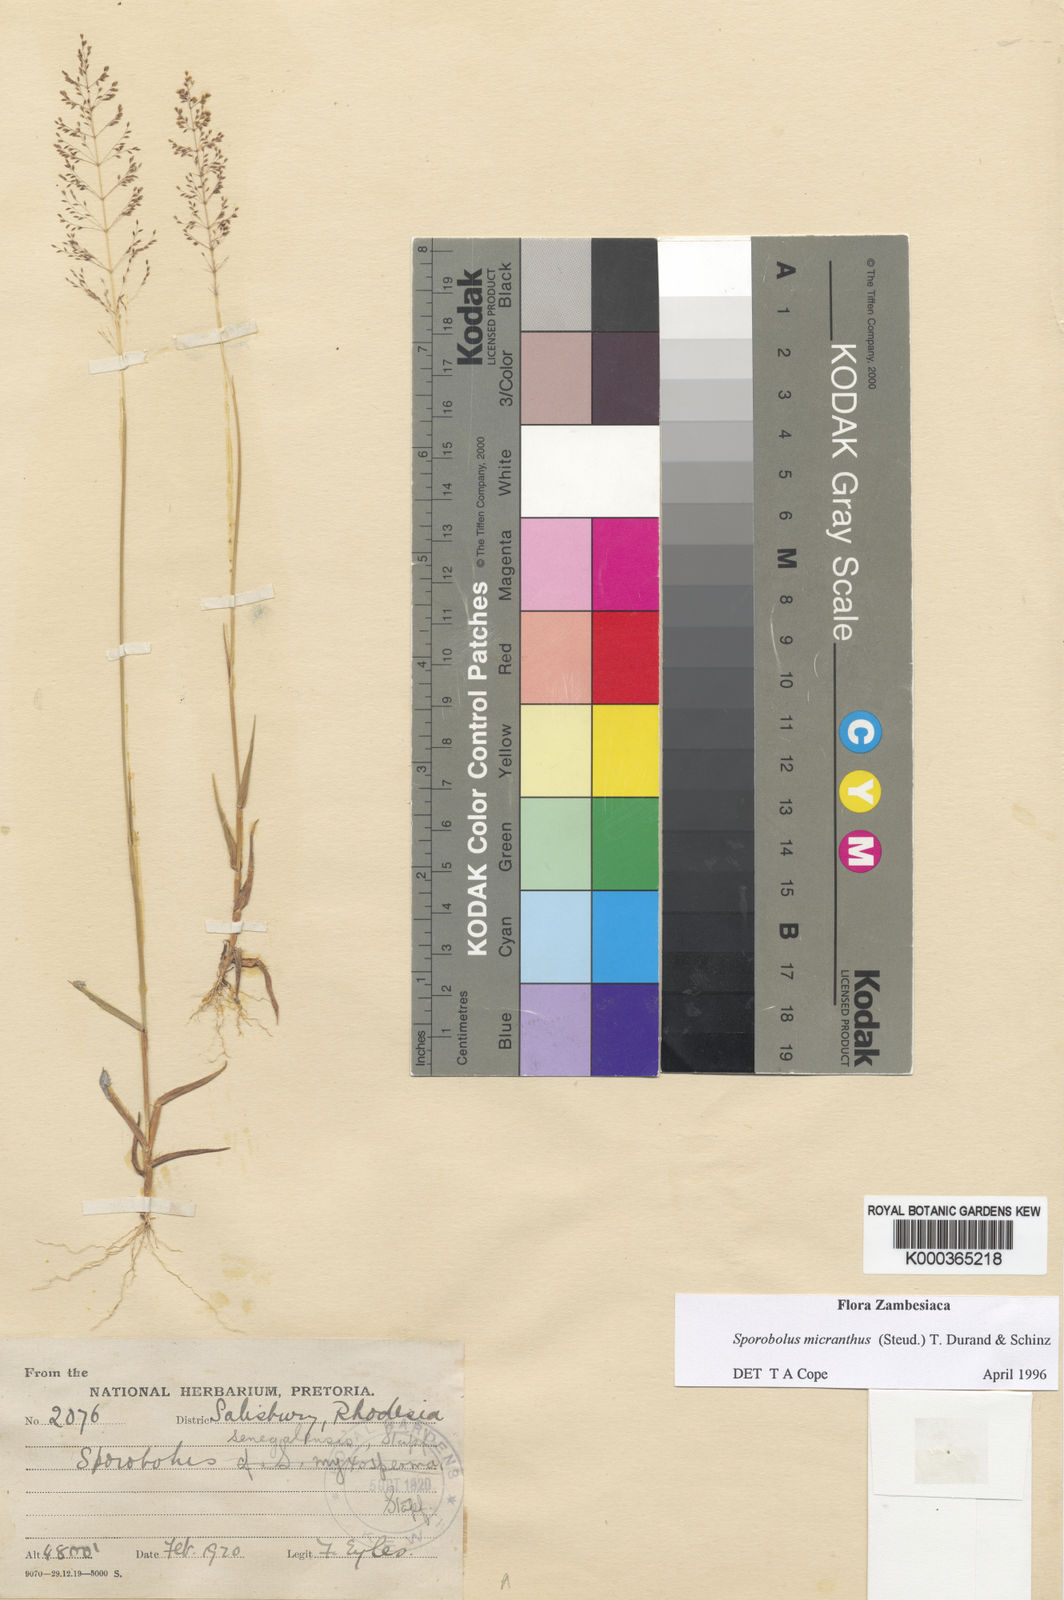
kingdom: Plantae
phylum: Tracheophyta
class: Liliopsida
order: Poales
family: Poaceae
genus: Sporobolus
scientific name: Sporobolus micranthus
